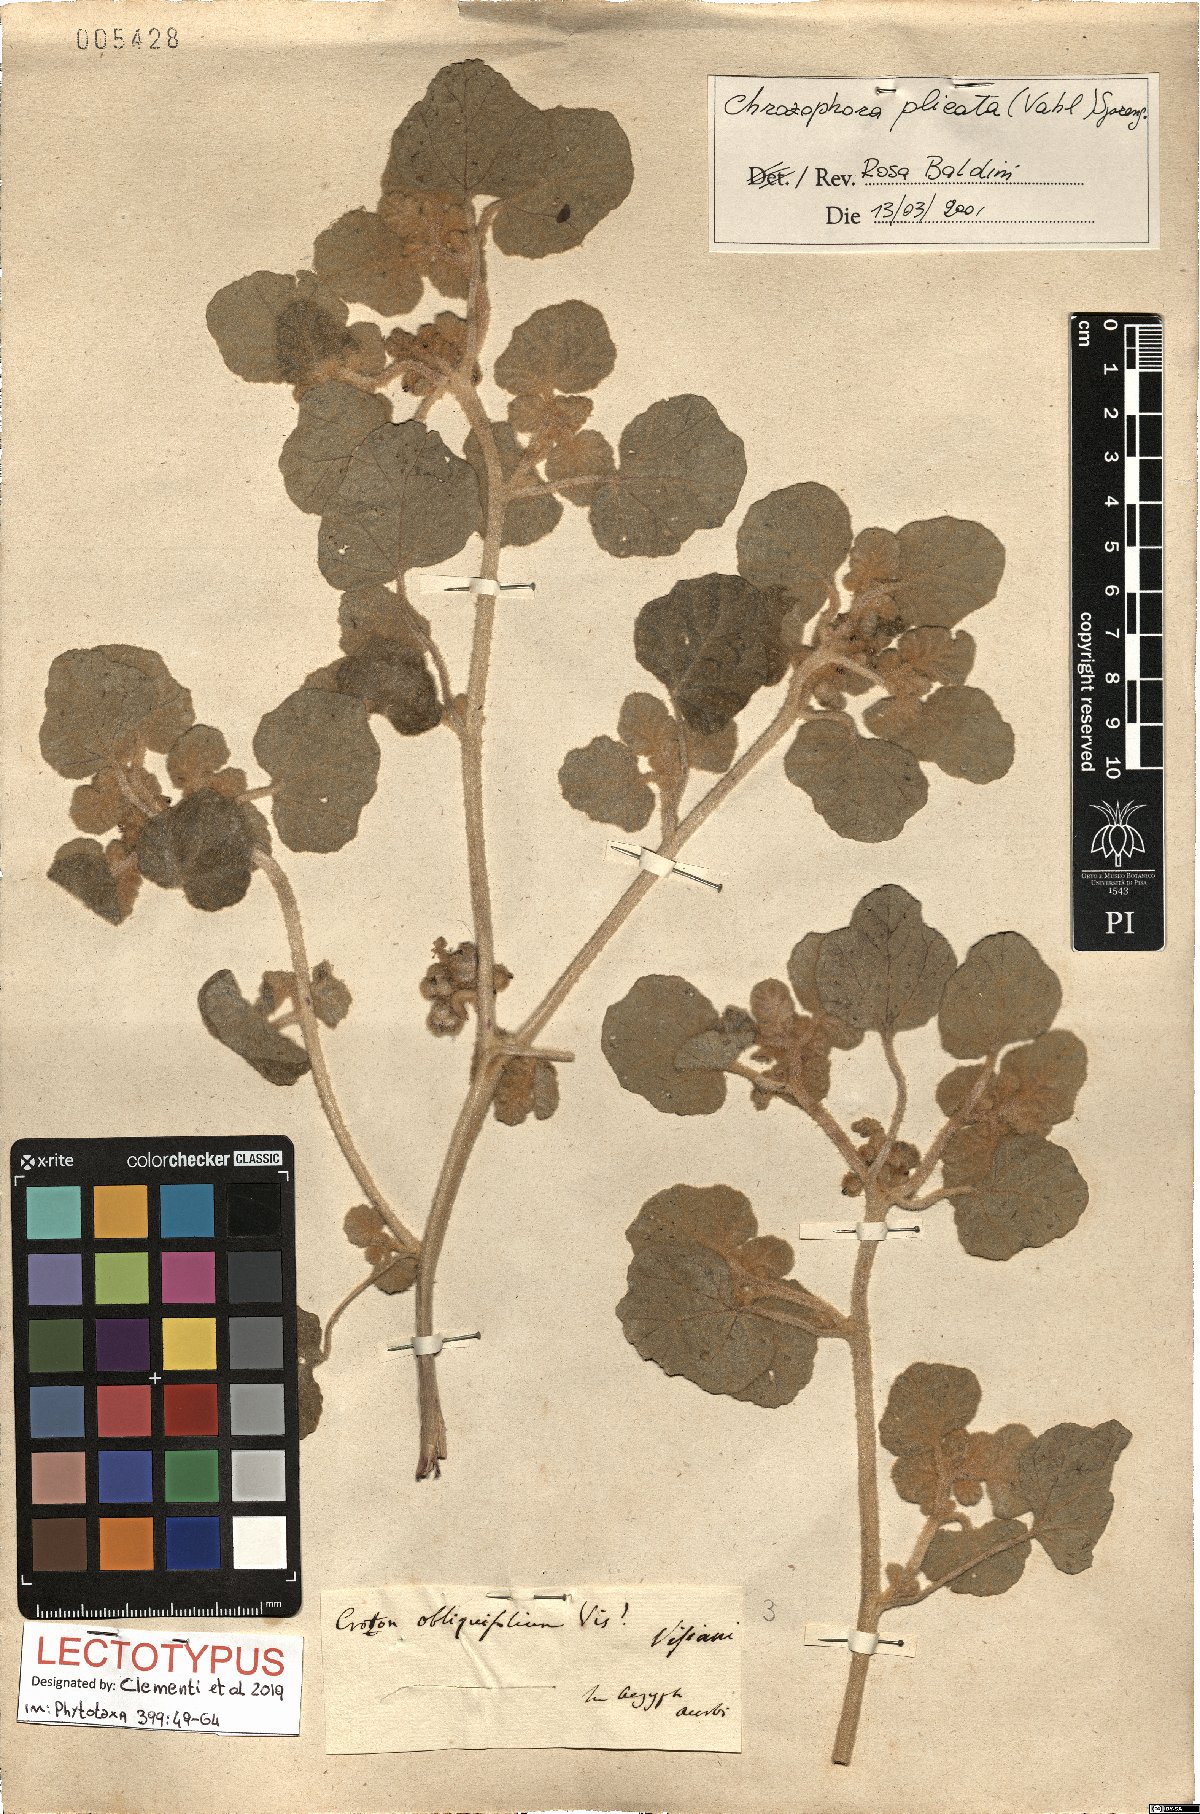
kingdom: Plantae
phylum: Tracheophyta
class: Magnoliopsida
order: Malpighiales
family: Euphorbiaceae
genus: Chrozophora
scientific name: Chrozophora plicata
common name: Giradol
